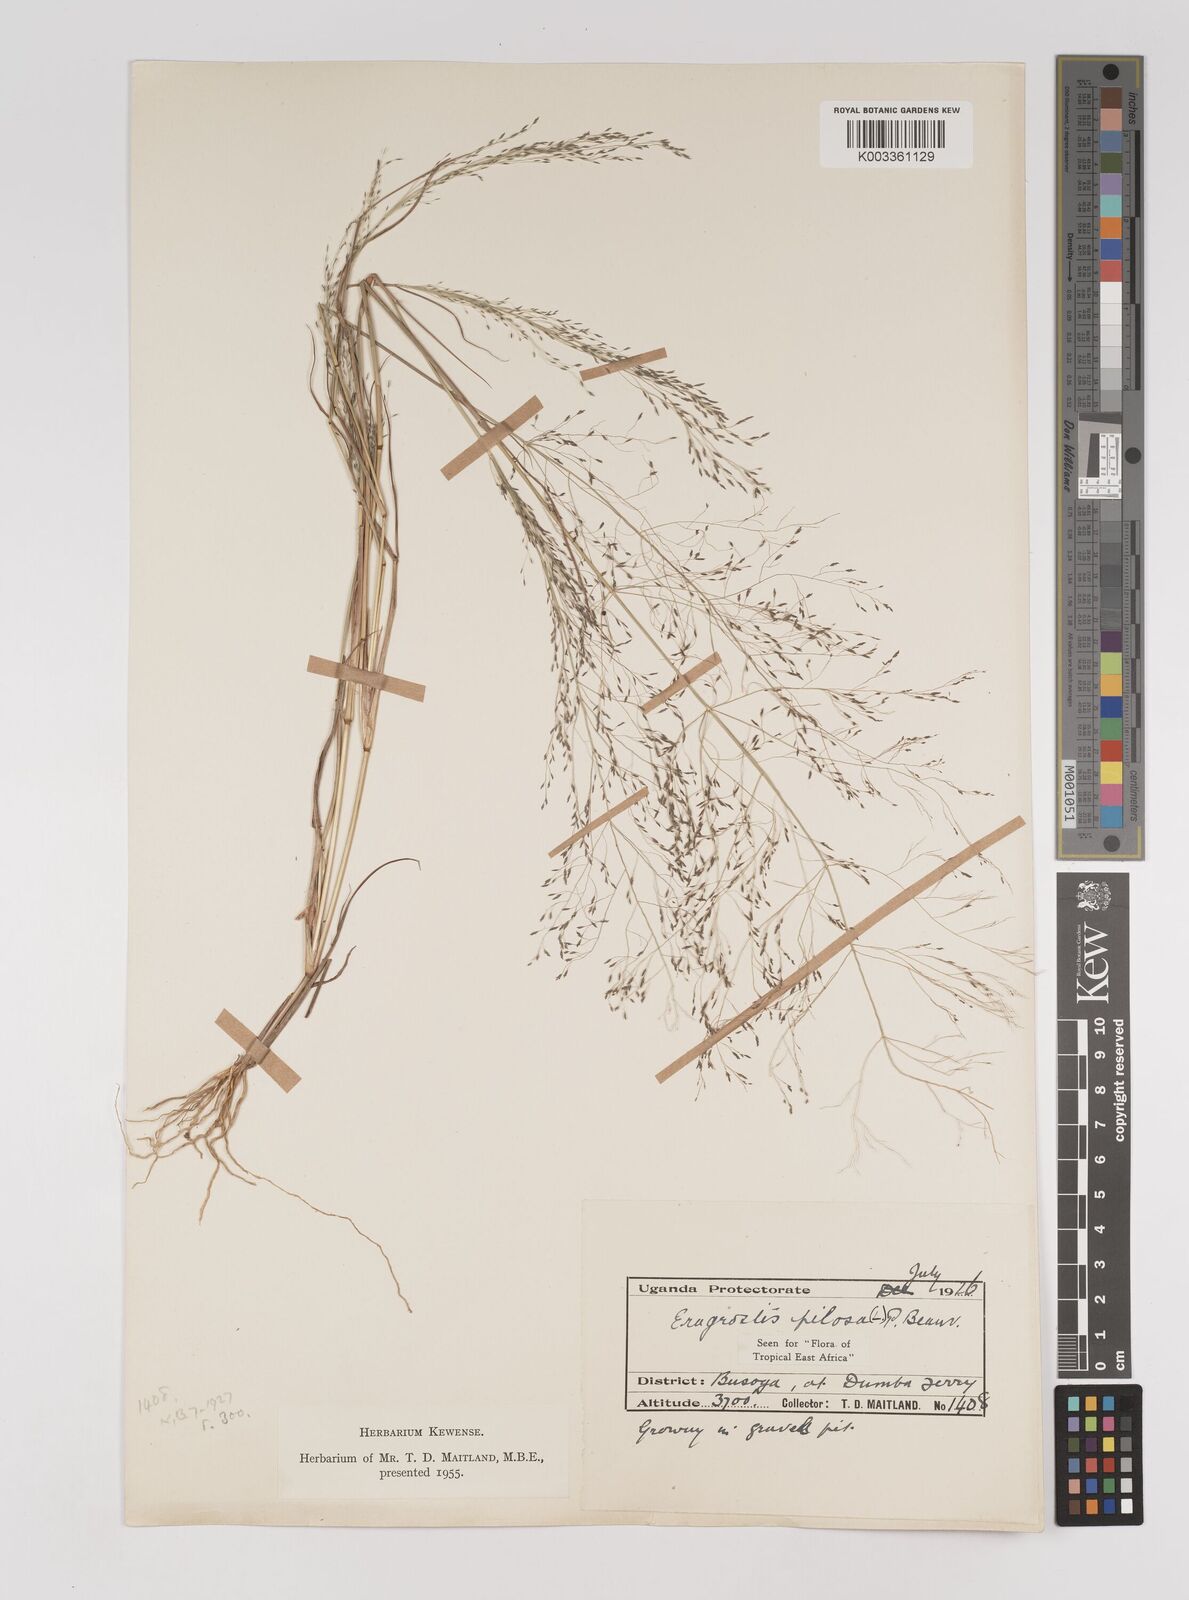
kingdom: Plantae
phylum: Tracheophyta
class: Liliopsida
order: Poales
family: Poaceae
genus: Eragrostis
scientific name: Eragrostis pilosa
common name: Indian lovegrass
